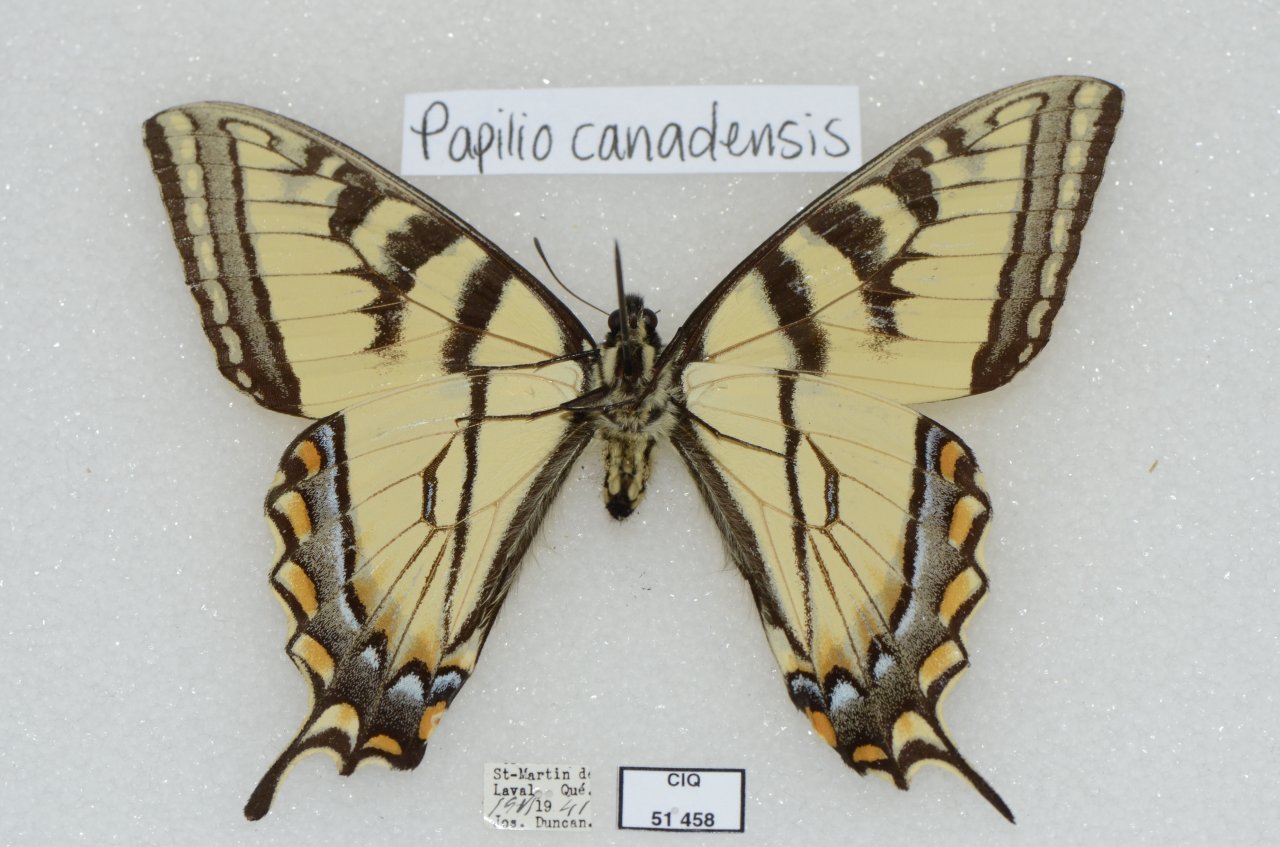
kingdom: Animalia
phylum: Arthropoda
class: Insecta
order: Lepidoptera
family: Papilionidae
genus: Pterourus
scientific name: Pterourus canadensis
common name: Canadian Tiger Swallowtail
